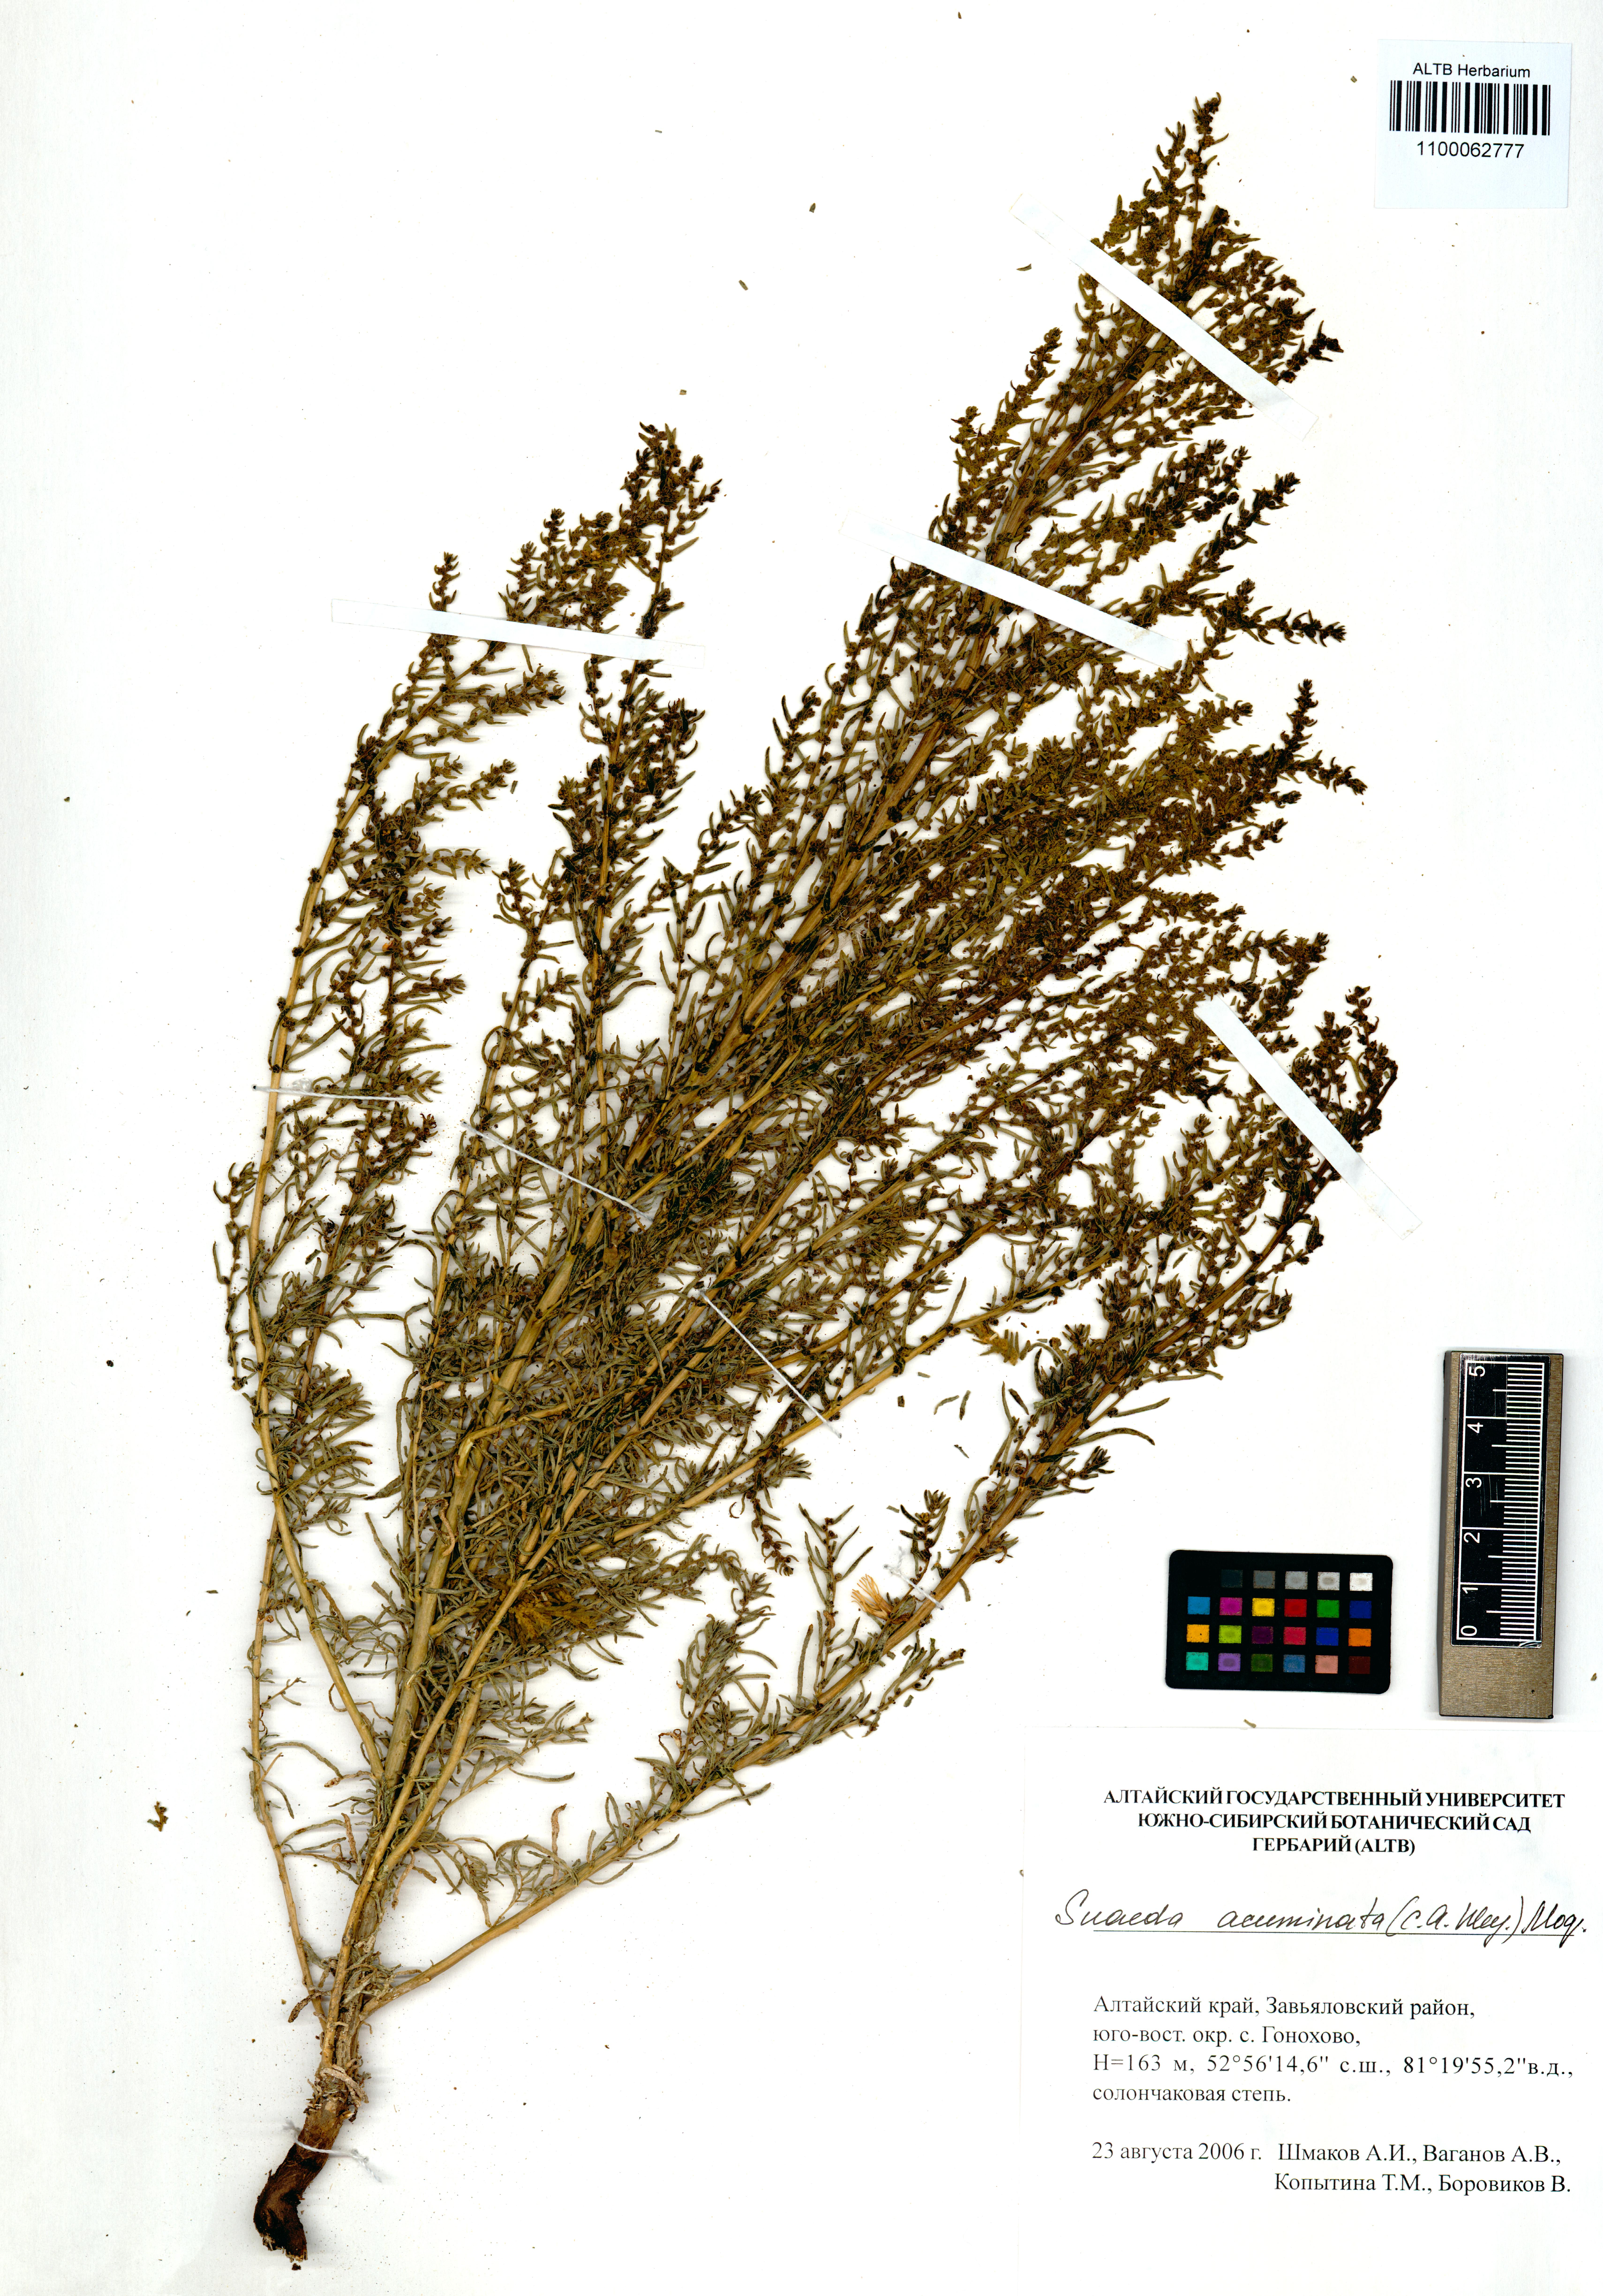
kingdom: Plantae
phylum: Tracheophyta
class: Magnoliopsida
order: Caryophyllales
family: Amaranthaceae
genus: Suaeda
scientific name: Suaeda acuminata
